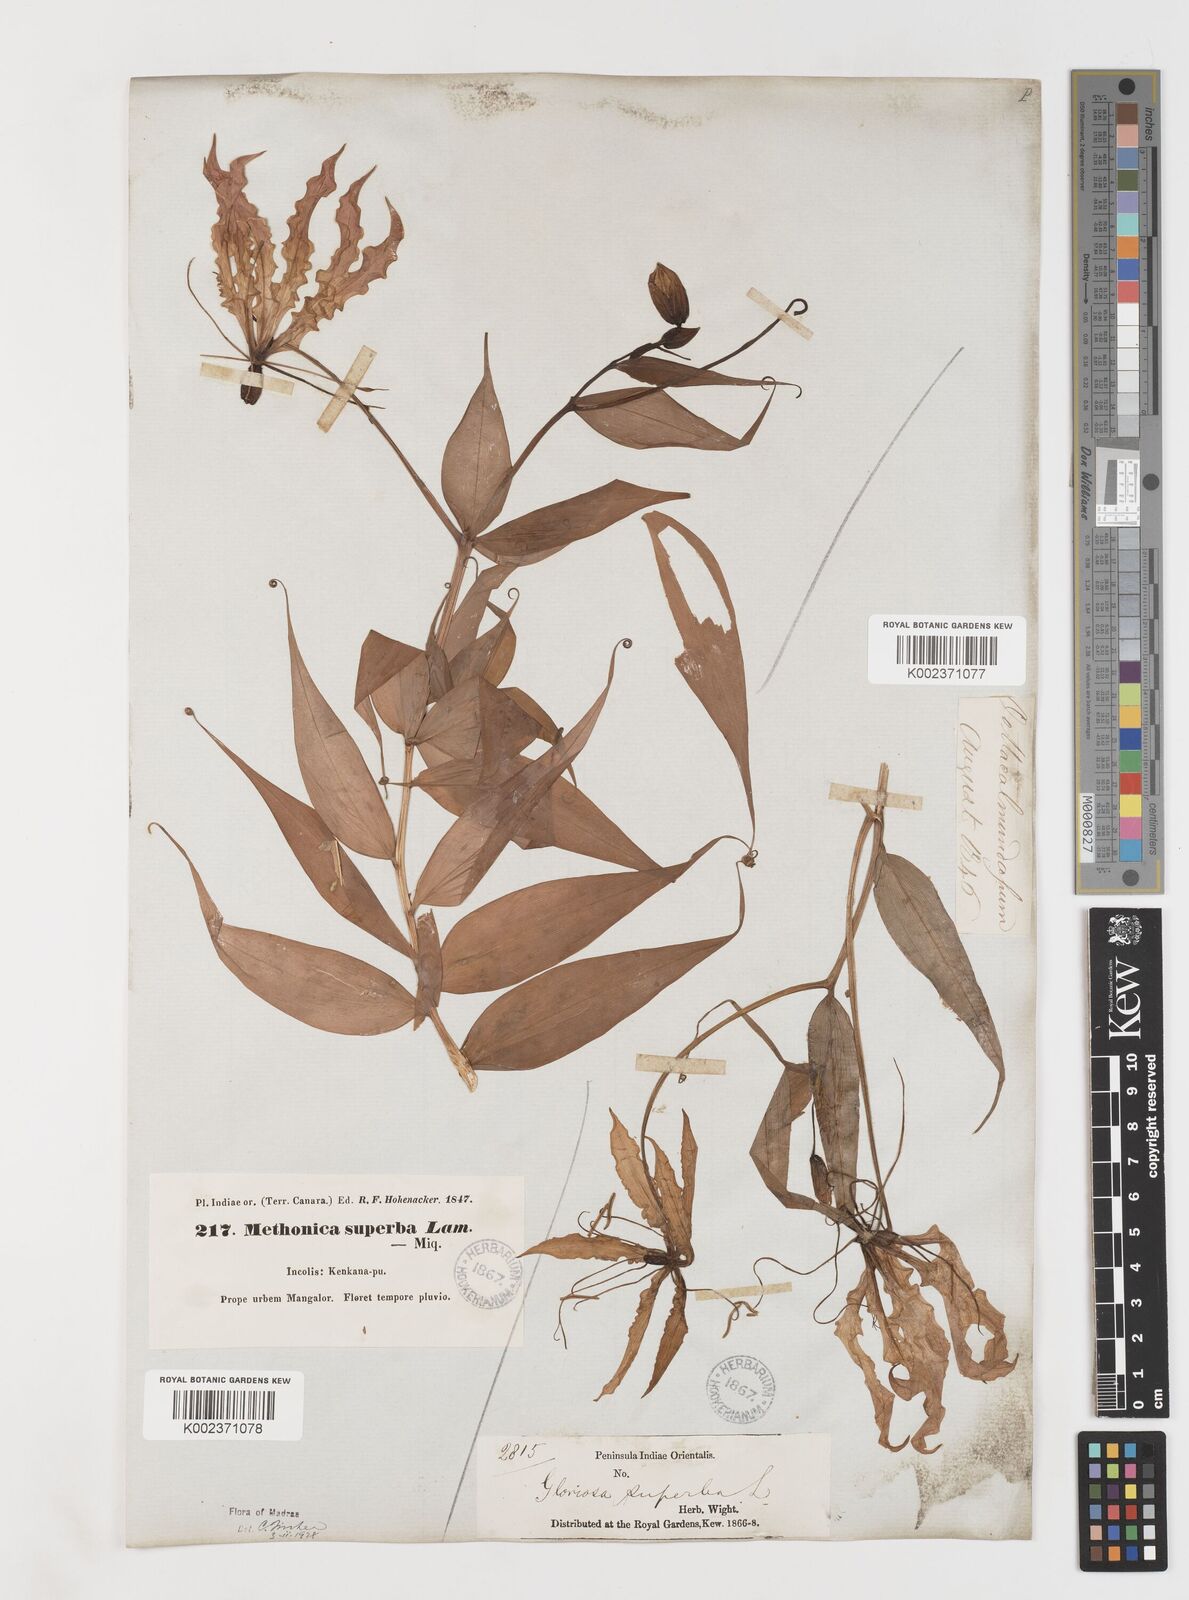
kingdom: Plantae
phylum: Tracheophyta
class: Liliopsida
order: Liliales
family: Colchicaceae
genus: Gloriosa
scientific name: Gloriosa superba
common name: Flame lily
